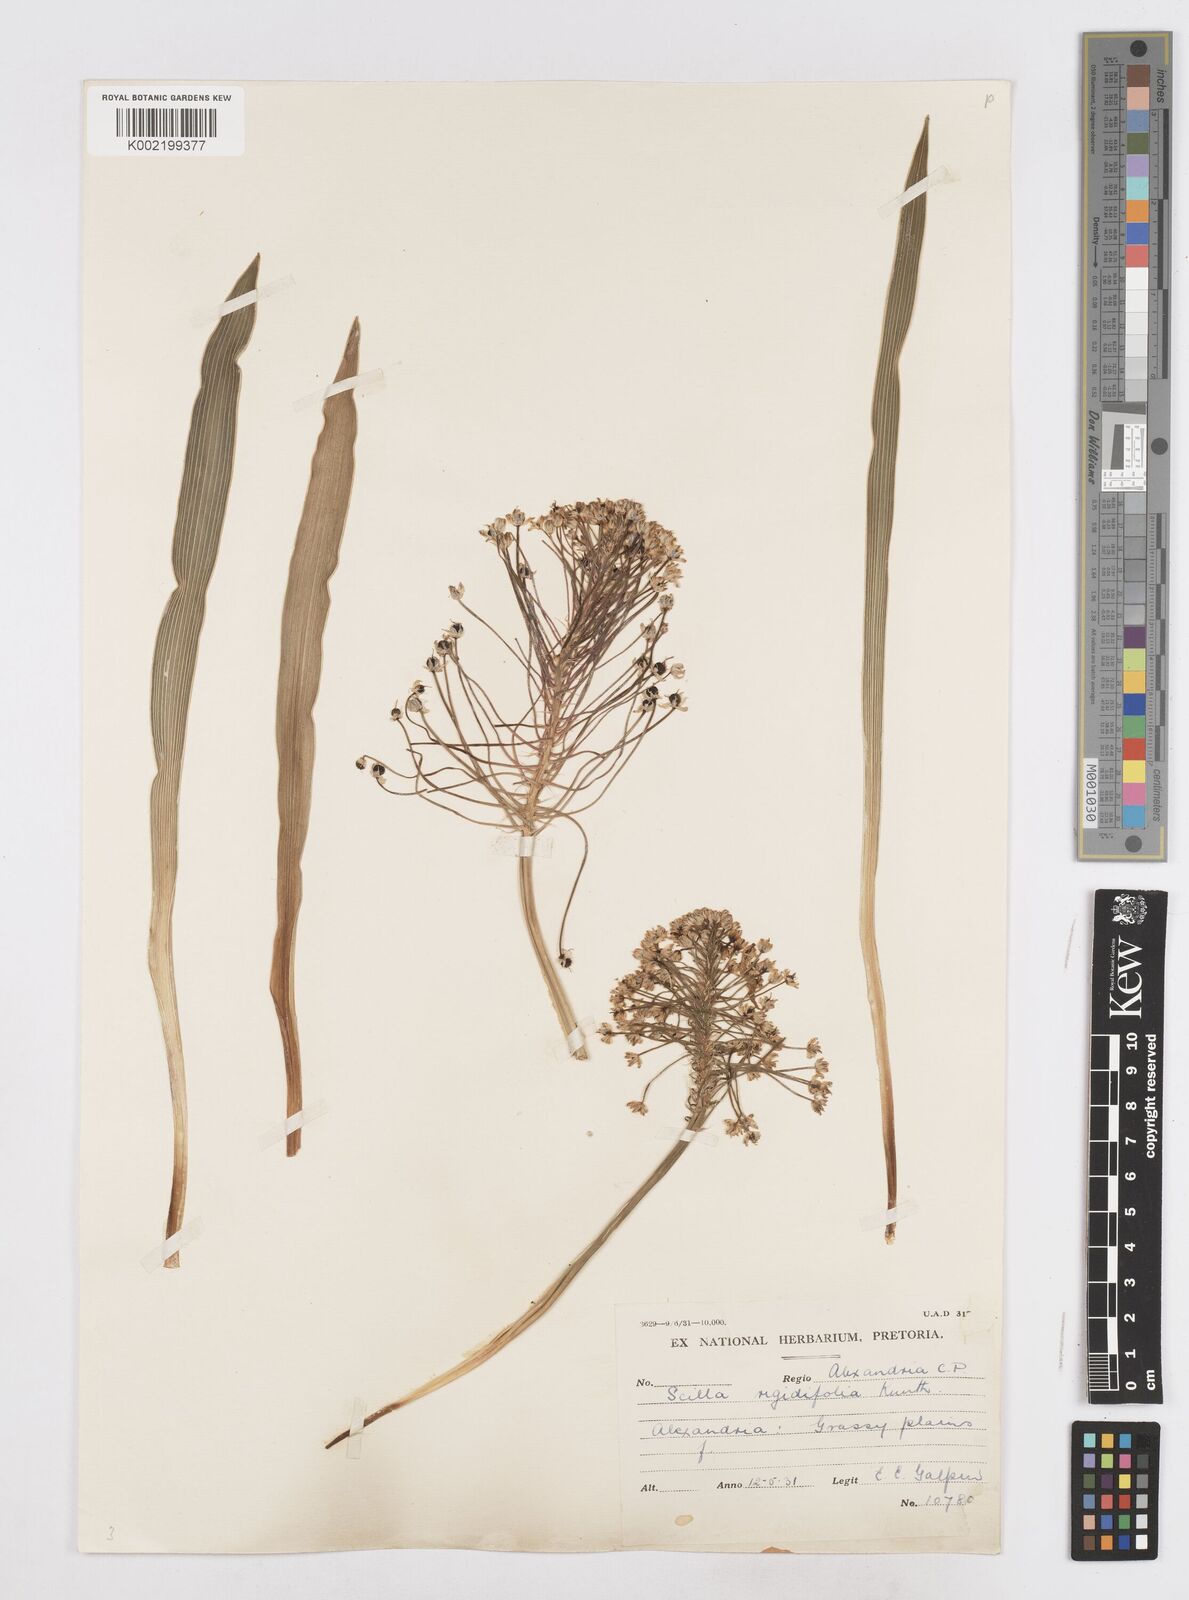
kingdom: Plantae
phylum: Tracheophyta
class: Liliopsida
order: Asparagales
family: Asparagaceae
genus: Schizocarphus
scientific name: Schizocarphus nervosus
